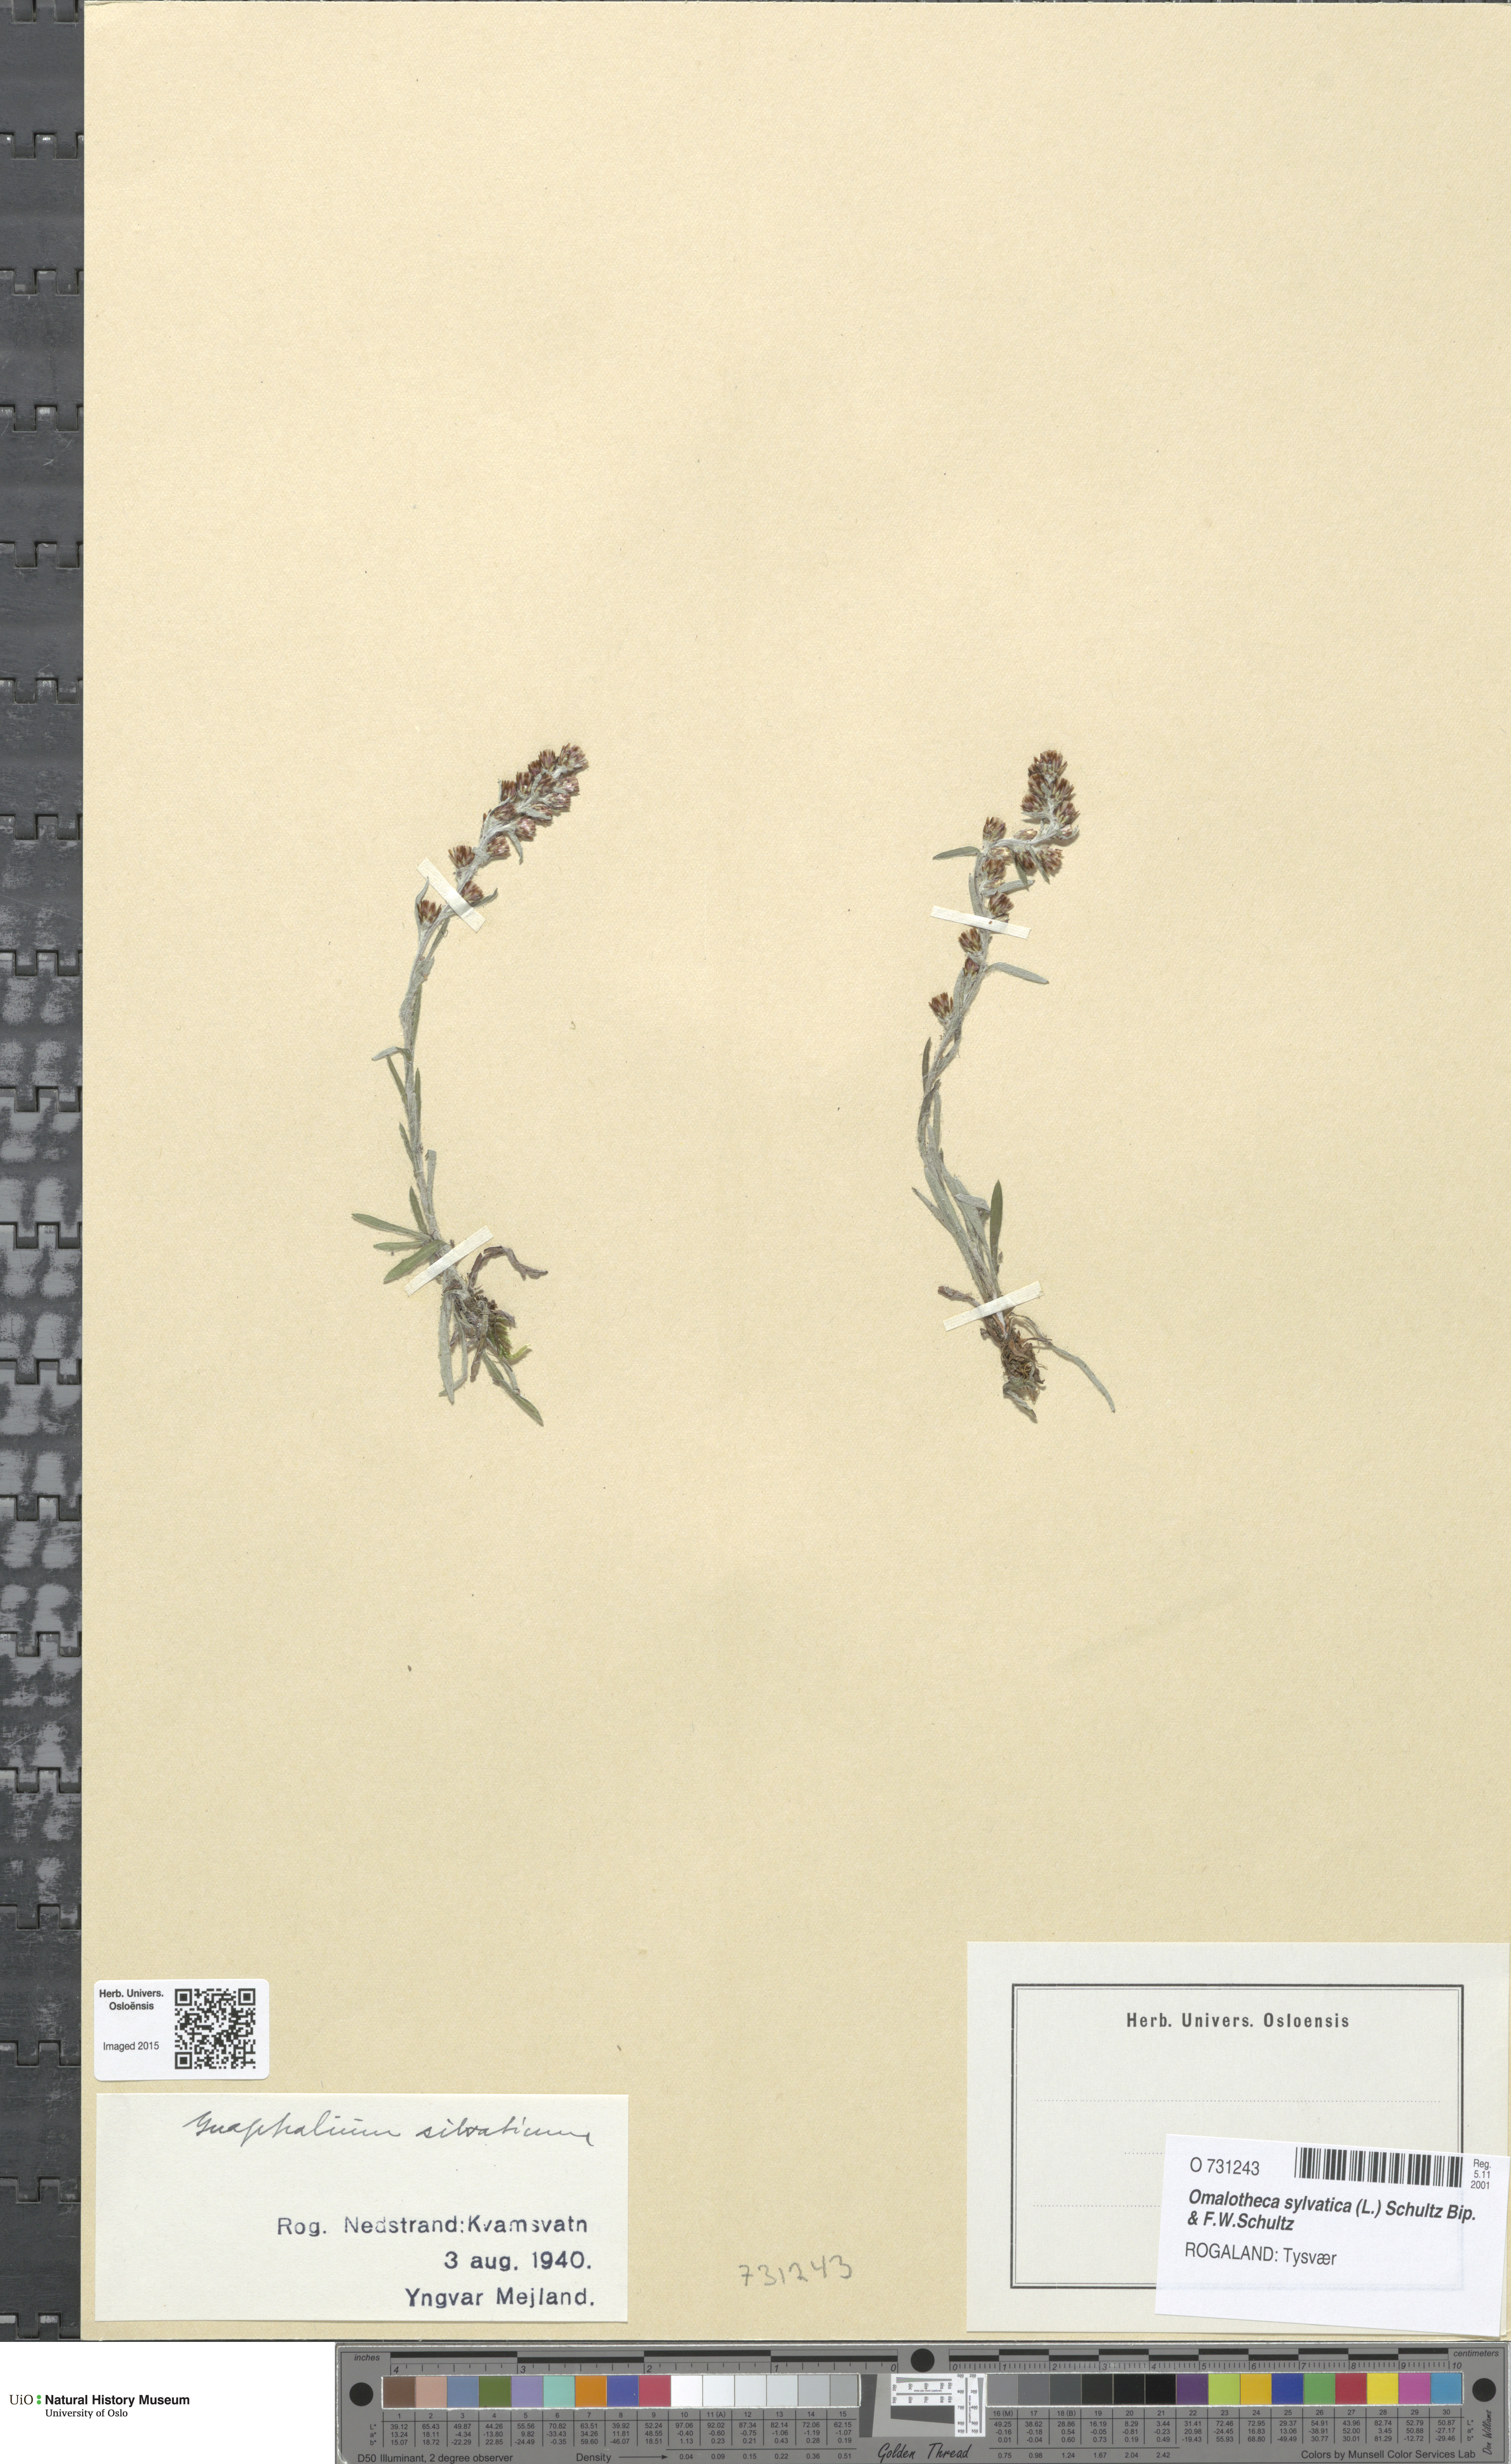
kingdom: Plantae
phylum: Tracheophyta
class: Magnoliopsida
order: Asterales
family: Asteraceae
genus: Omalotheca
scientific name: Omalotheca sylvatica
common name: Heath cudweed
